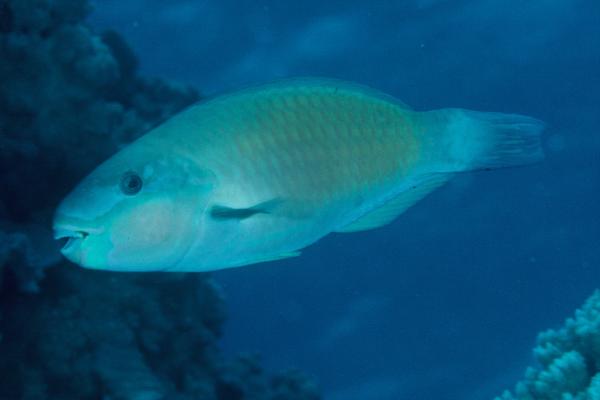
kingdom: Animalia
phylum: Chordata
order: Perciformes
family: Scaridae
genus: Chlorurus
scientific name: Chlorurus sordidus
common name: Bullethead parrotfish
